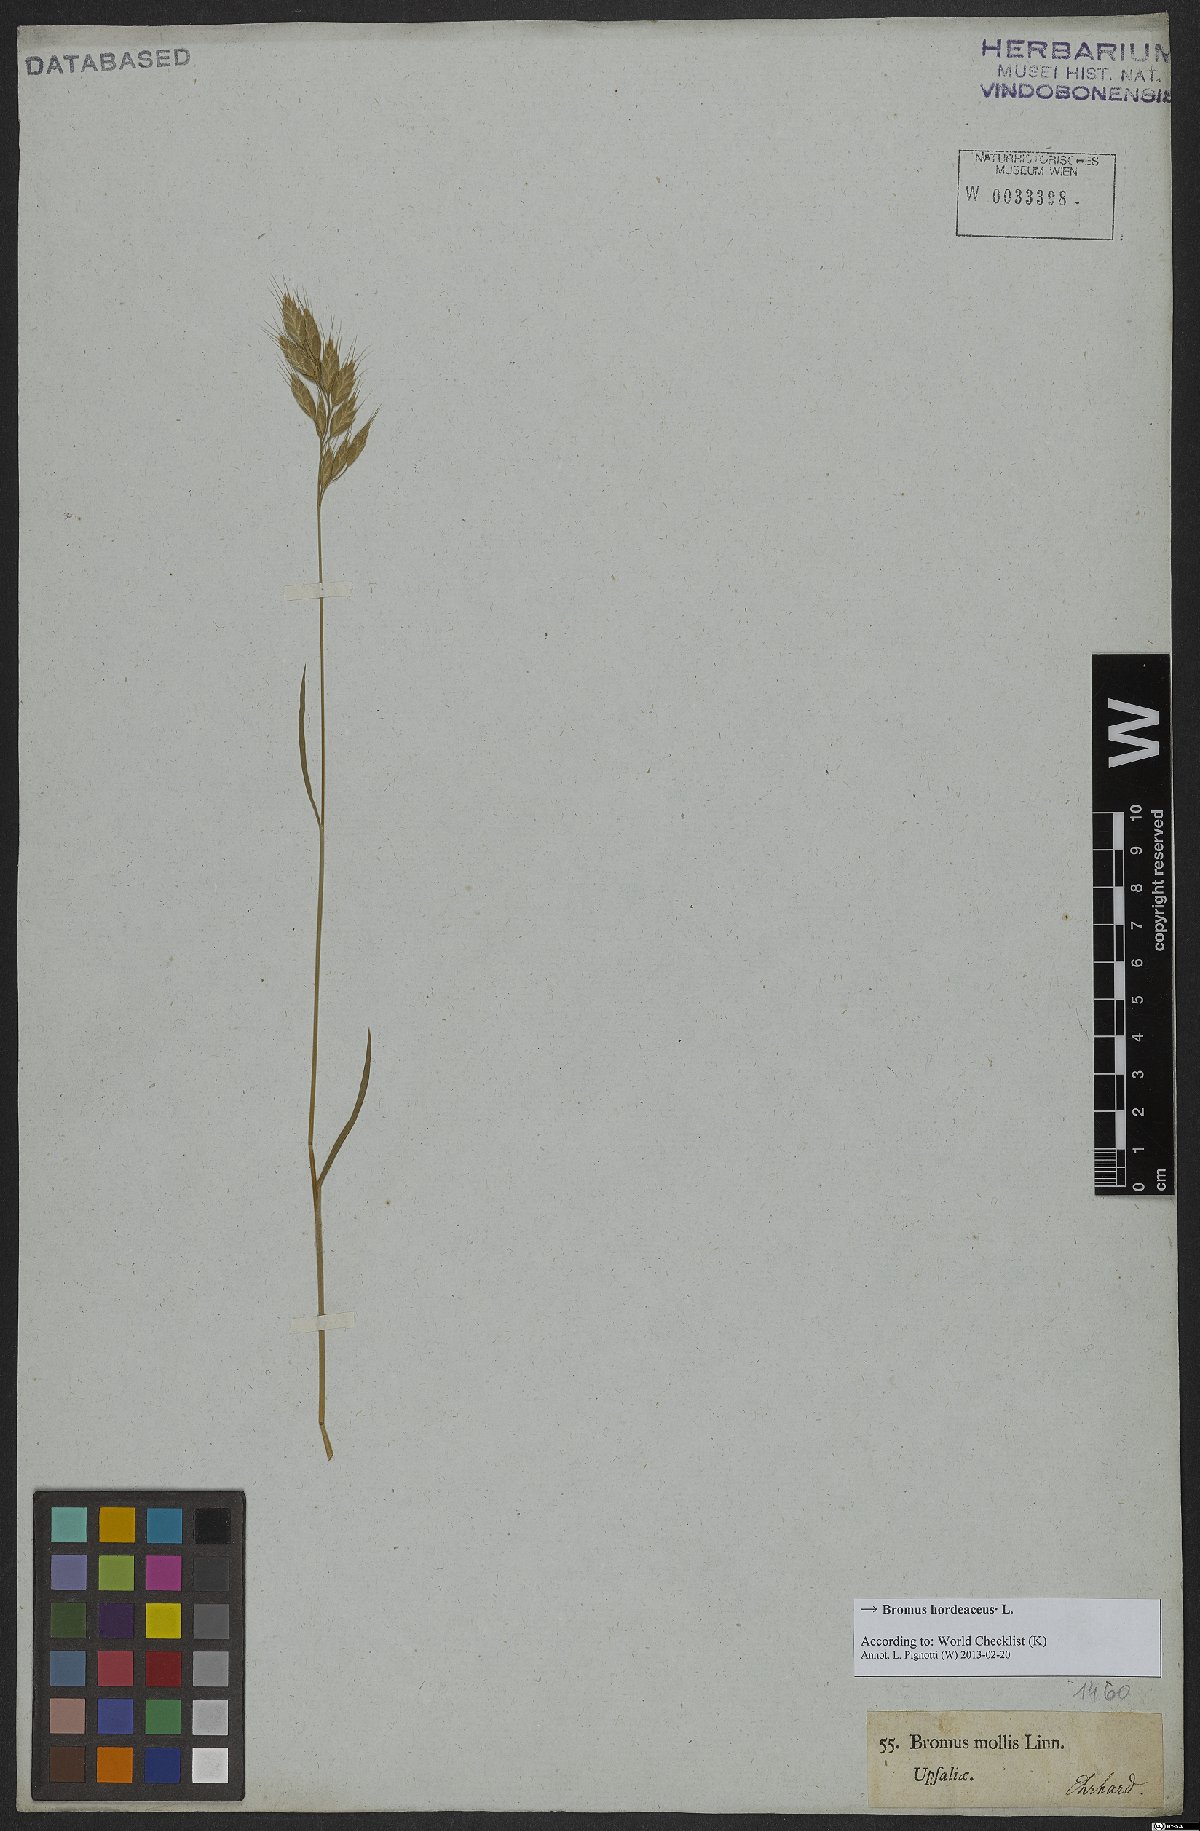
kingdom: Plantae
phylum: Tracheophyta
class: Liliopsida
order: Poales
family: Poaceae
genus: Bromus
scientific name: Bromus hordeaceus
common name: Soft brome
